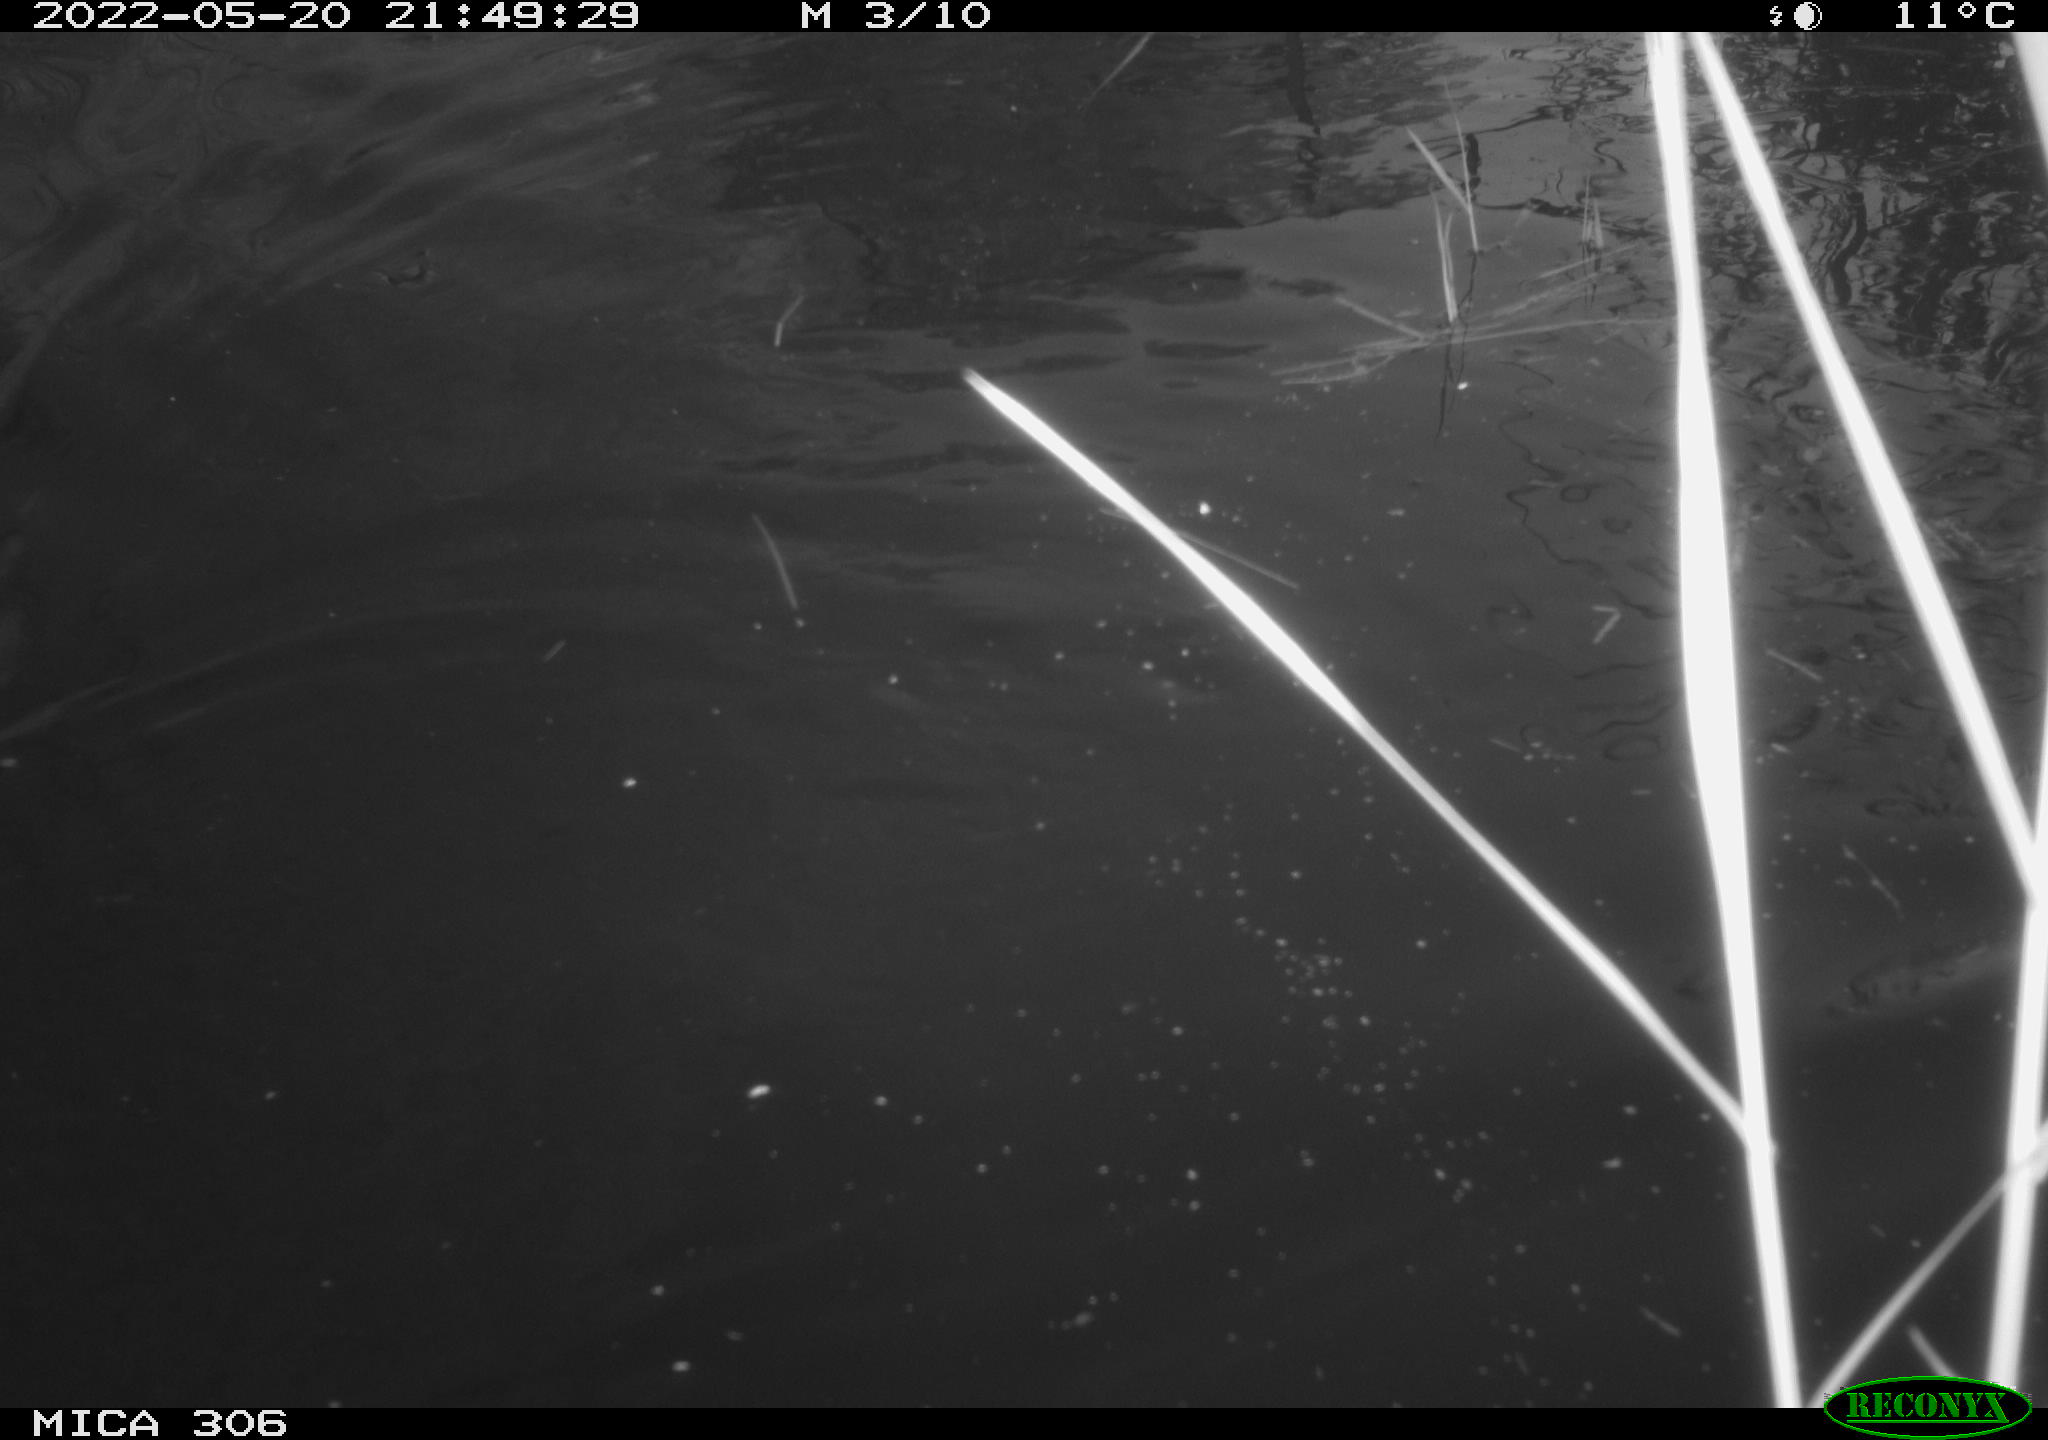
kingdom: Animalia
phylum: Chordata
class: Mammalia
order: Rodentia
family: Cricetidae
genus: Ondatra
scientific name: Ondatra zibethicus
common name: Muskrat
